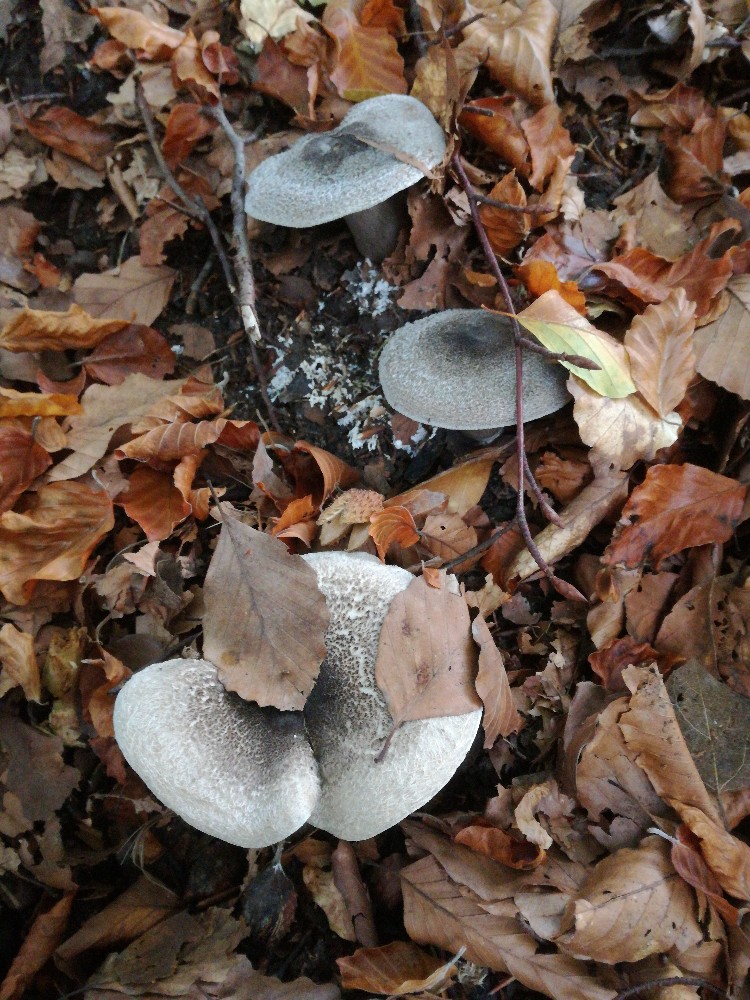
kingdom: Fungi
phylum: Basidiomycota
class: Agaricomycetes
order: Agaricales
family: Tricholomataceae
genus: Tricholoma
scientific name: Tricholoma atrosquamosum
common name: sortskællet ridderhat
